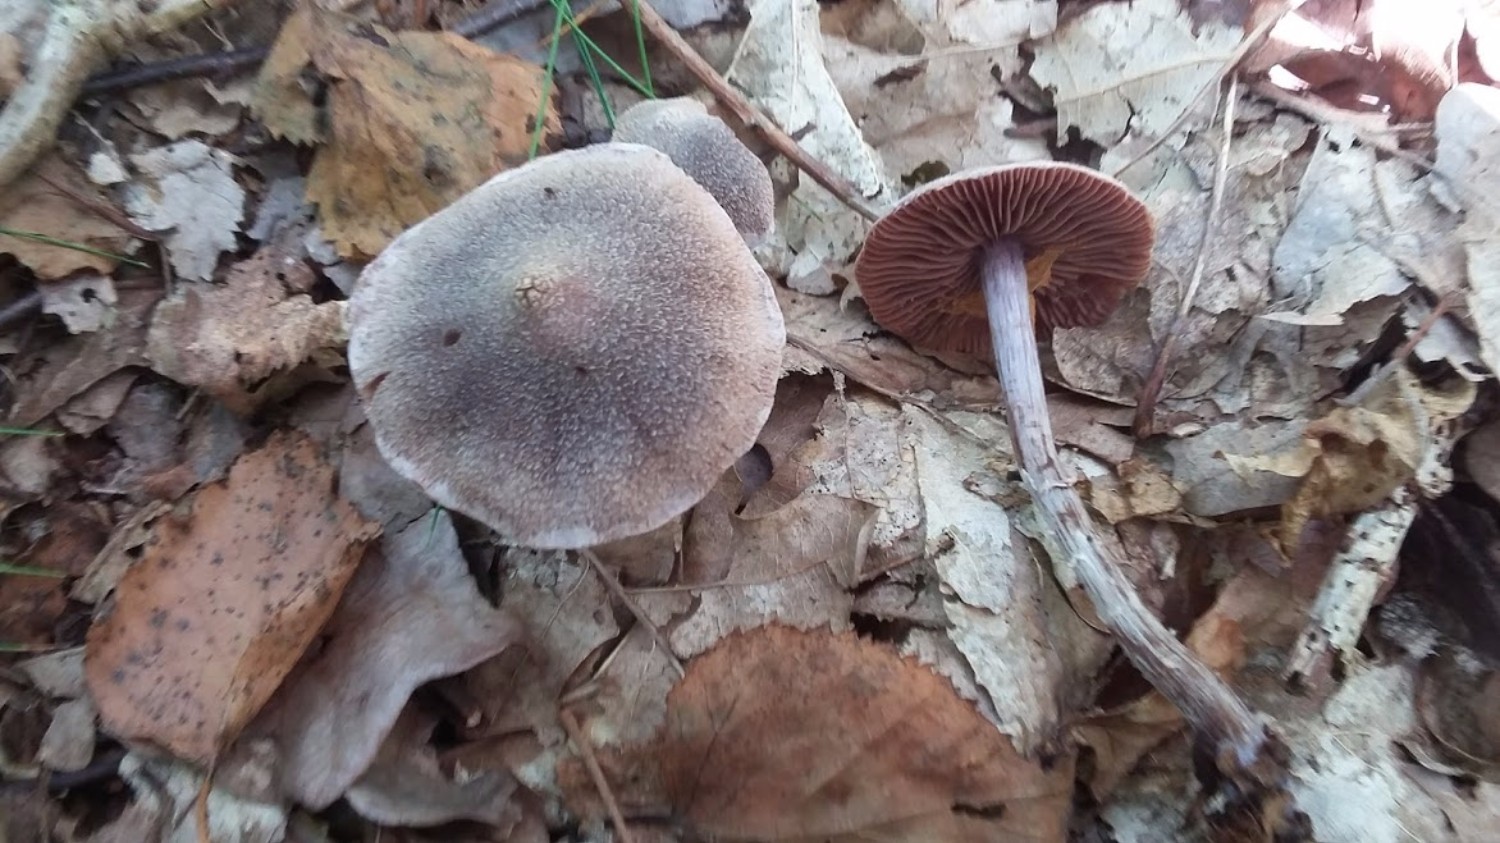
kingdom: Fungi
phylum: Basidiomycota
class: Agaricomycetes
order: Agaricales
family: Cortinariaceae
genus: Cortinarius
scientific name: Cortinarius
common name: pelargonie-slørhat
